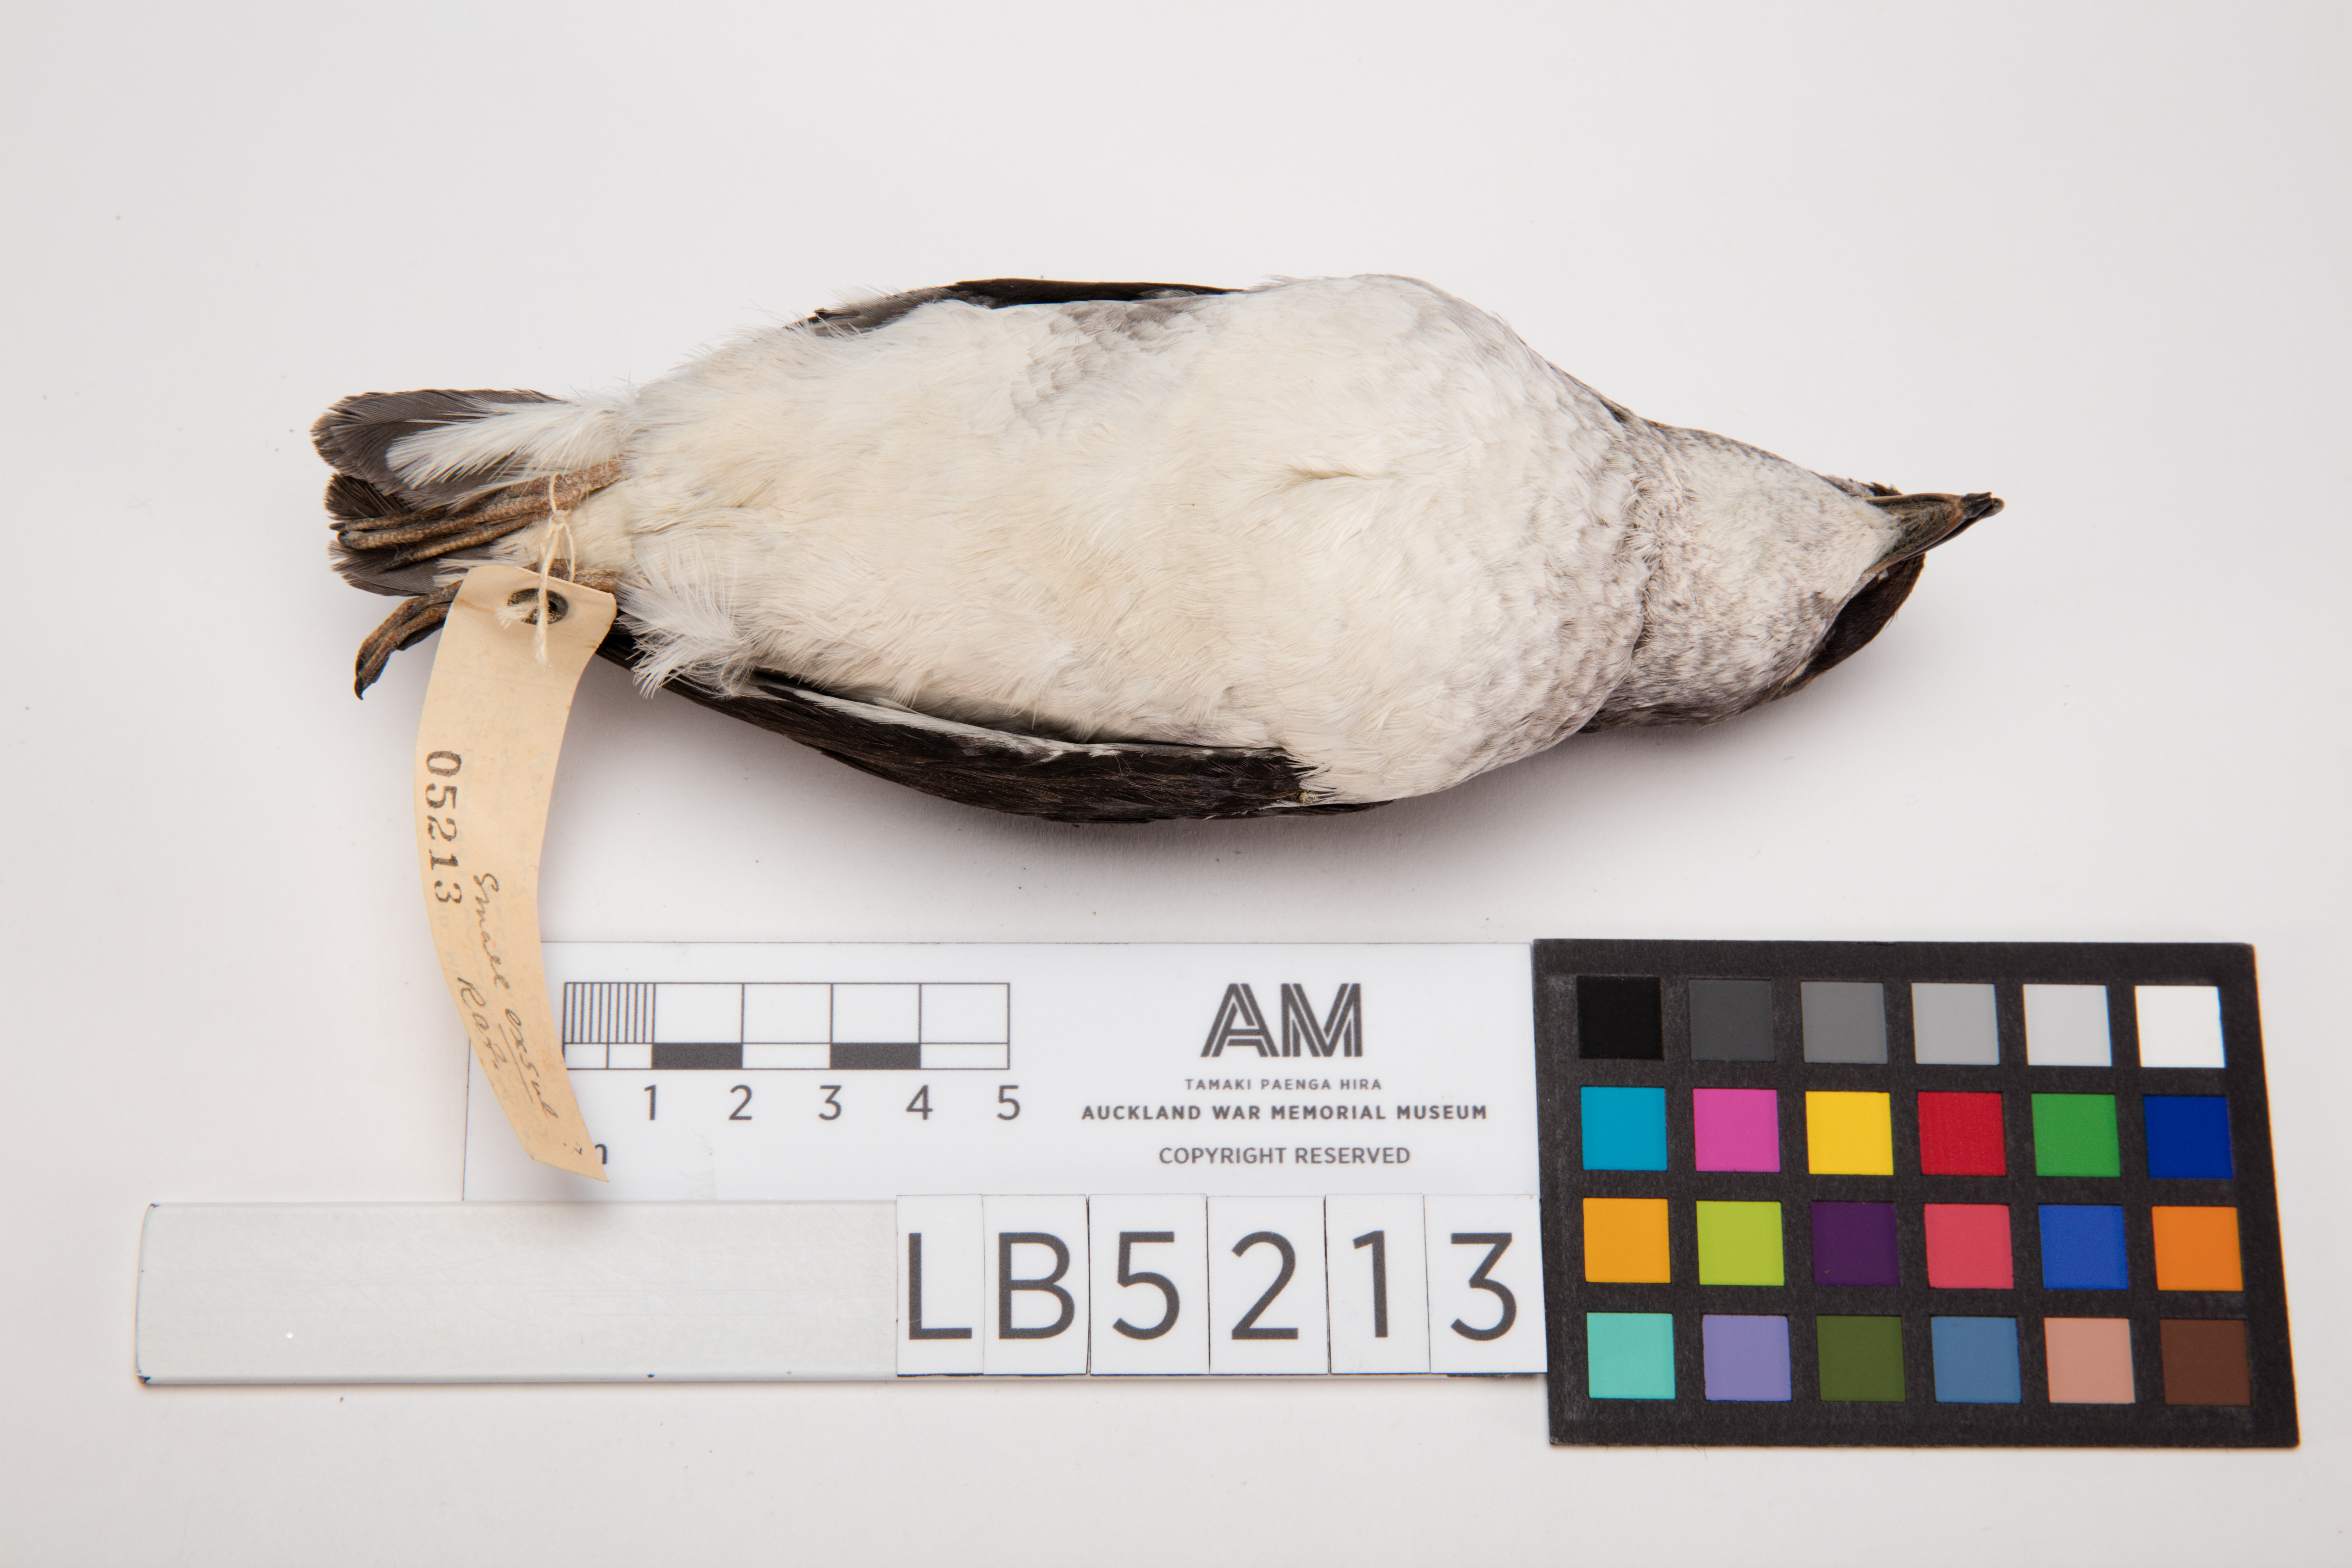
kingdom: Animalia
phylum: Chordata
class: Aves
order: Procellariiformes
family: Pelecanoididae
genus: Pelecanoides
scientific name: Pelecanoides urinatrix
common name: Common diving-petrel
